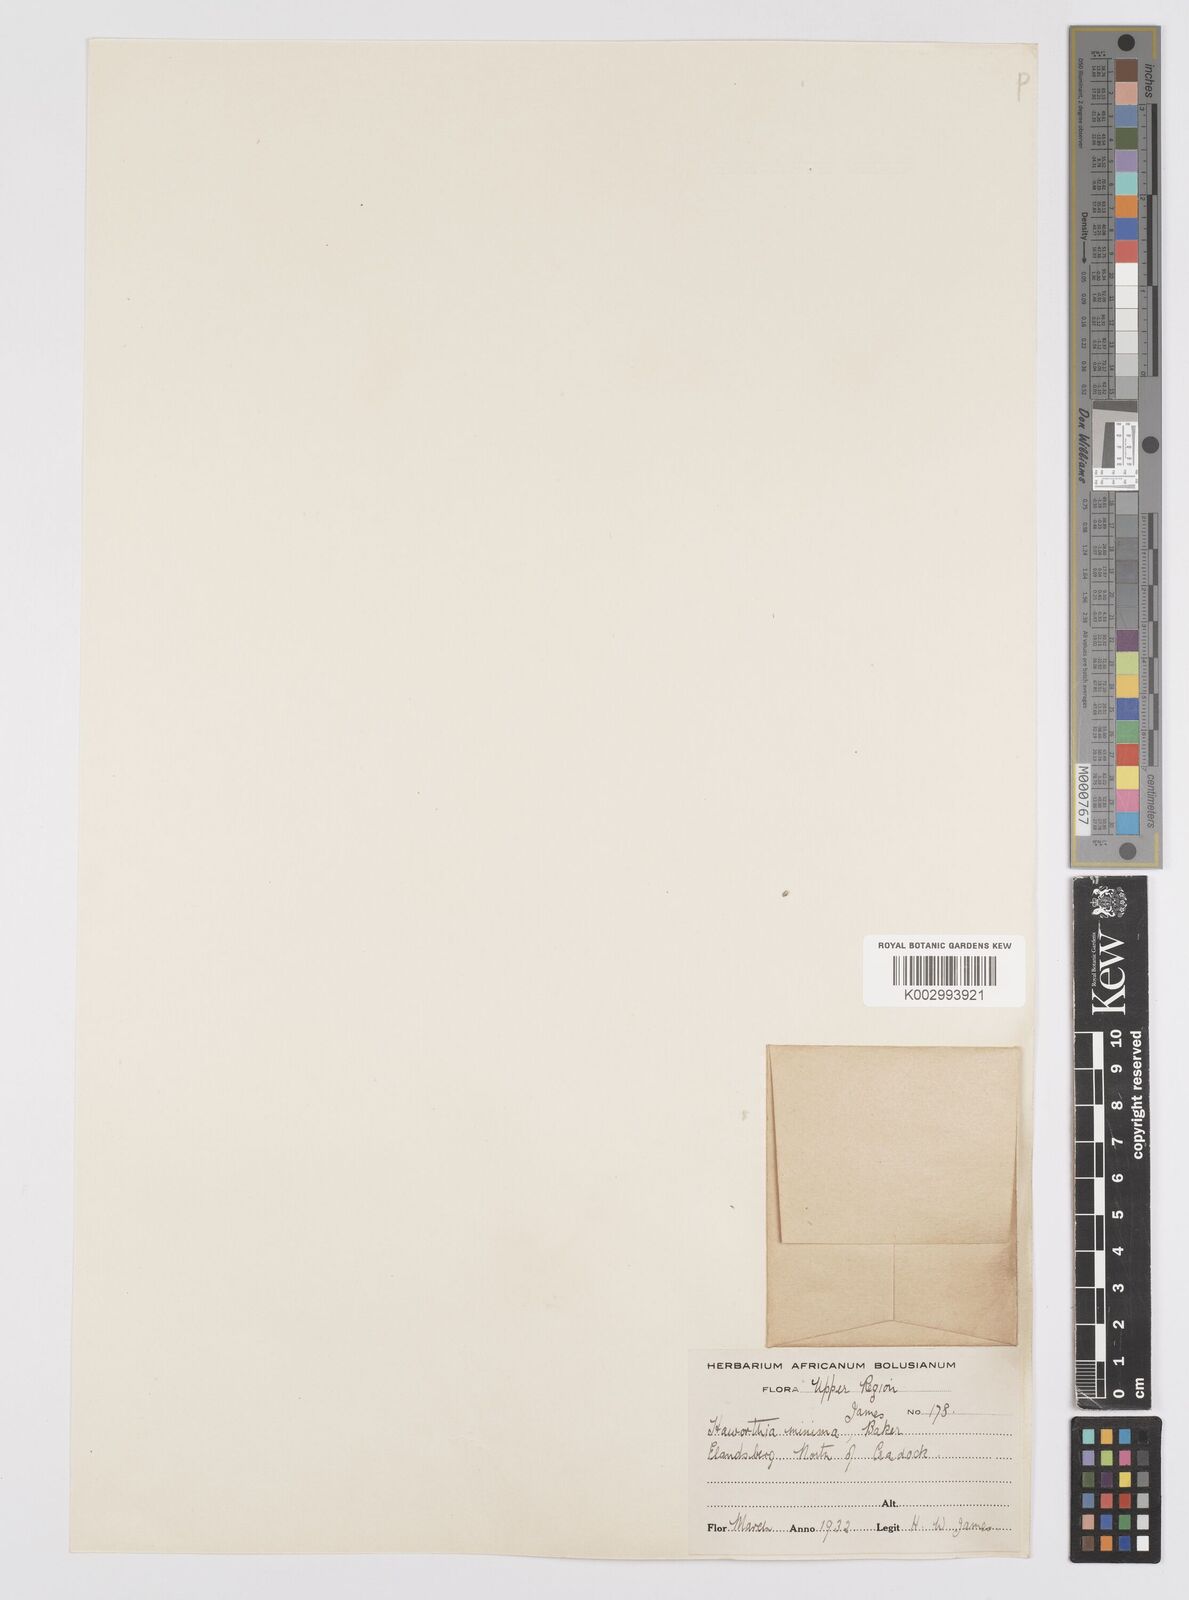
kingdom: Plantae
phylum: Tracheophyta
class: Liliopsida
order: Asparagales
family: Asphodelaceae
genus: Haworthia
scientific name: Haworthia cooperi
